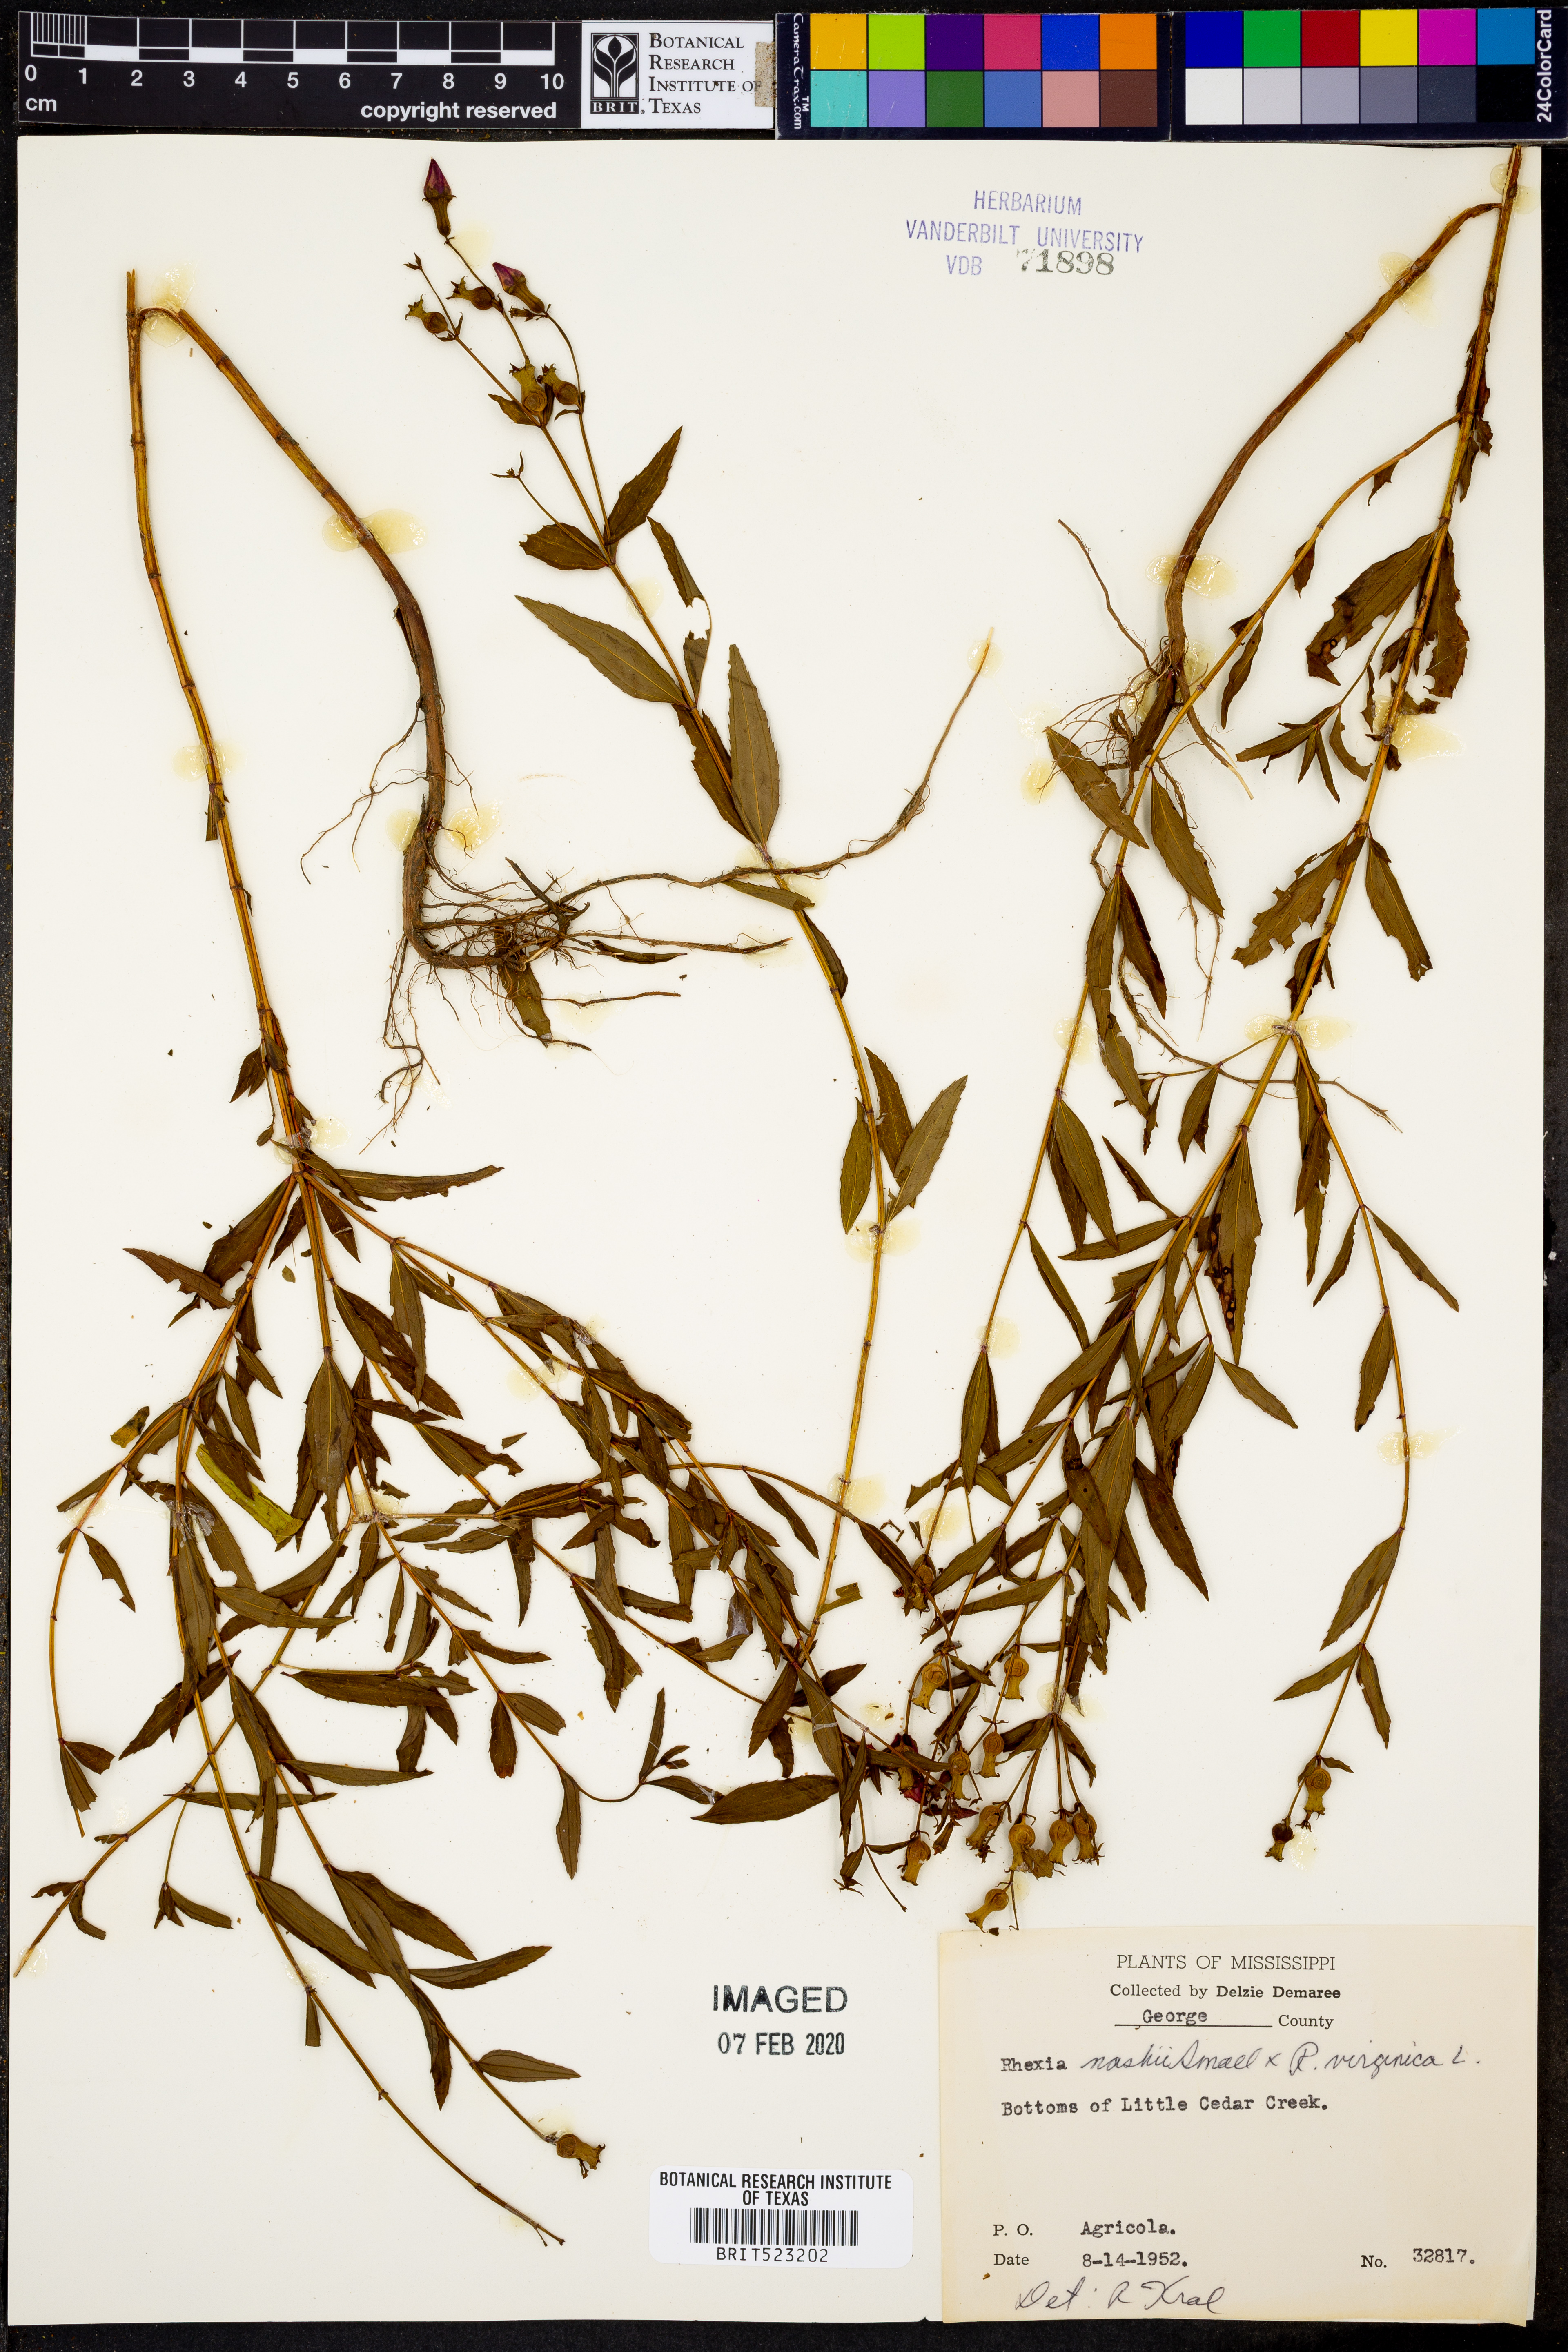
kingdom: Plantae
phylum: Tracheophyta
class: Magnoliopsida
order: Myrtales
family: Melastomataceae
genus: Rhexia
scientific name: Rhexia nashii
